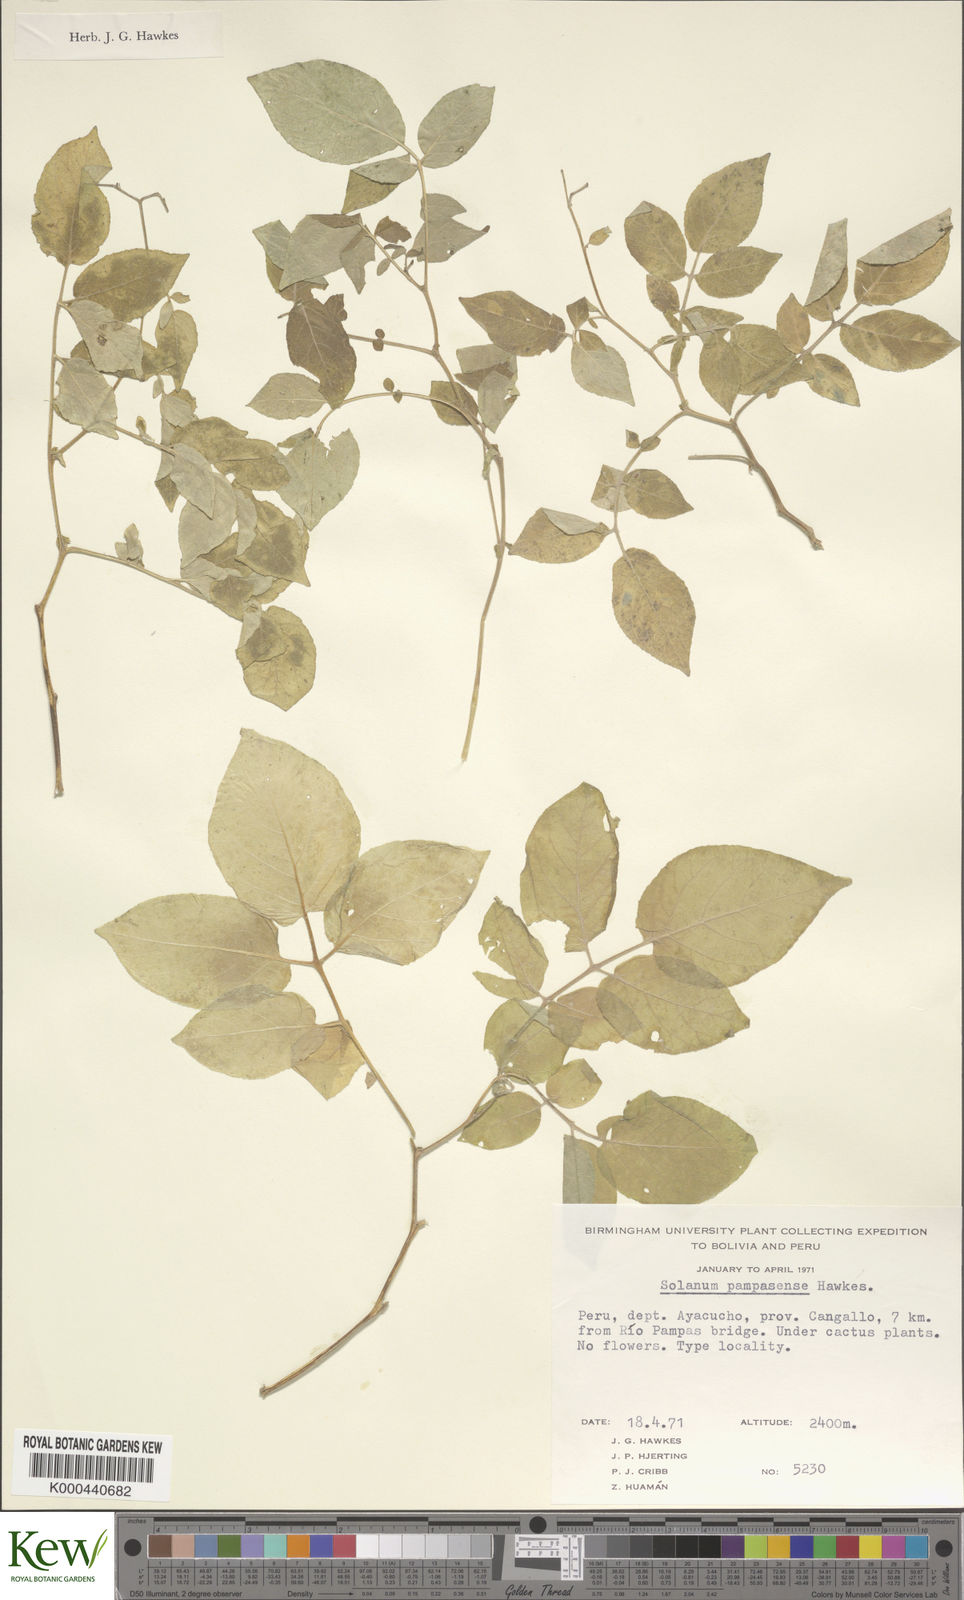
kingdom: Plantae
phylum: Tracheophyta
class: Magnoliopsida
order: Solanales
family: Solanaceae
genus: Solanum
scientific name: Solanum candolleanum
